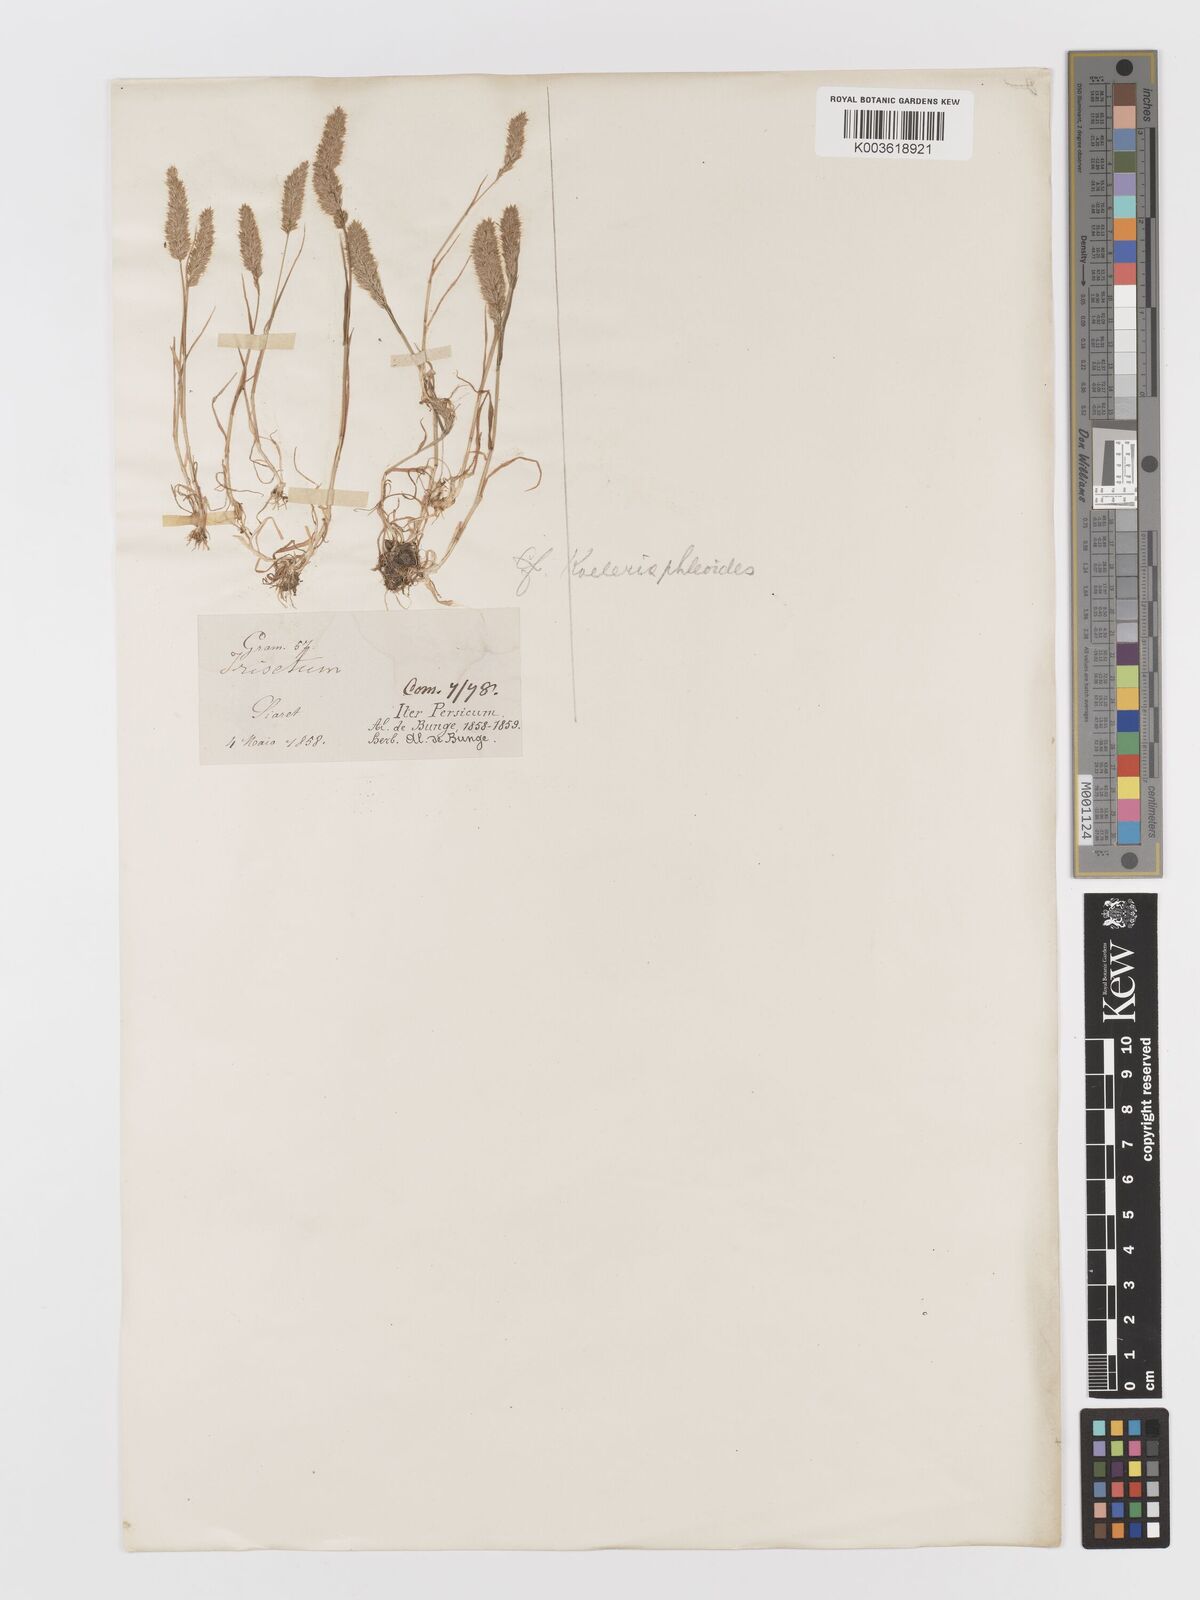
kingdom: Plantae
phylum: Tracheophyta
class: Liliopsida
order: Poales
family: Poaceae
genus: Rostraria
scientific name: Rostraria cristata
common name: Mediterranean hair-grass
